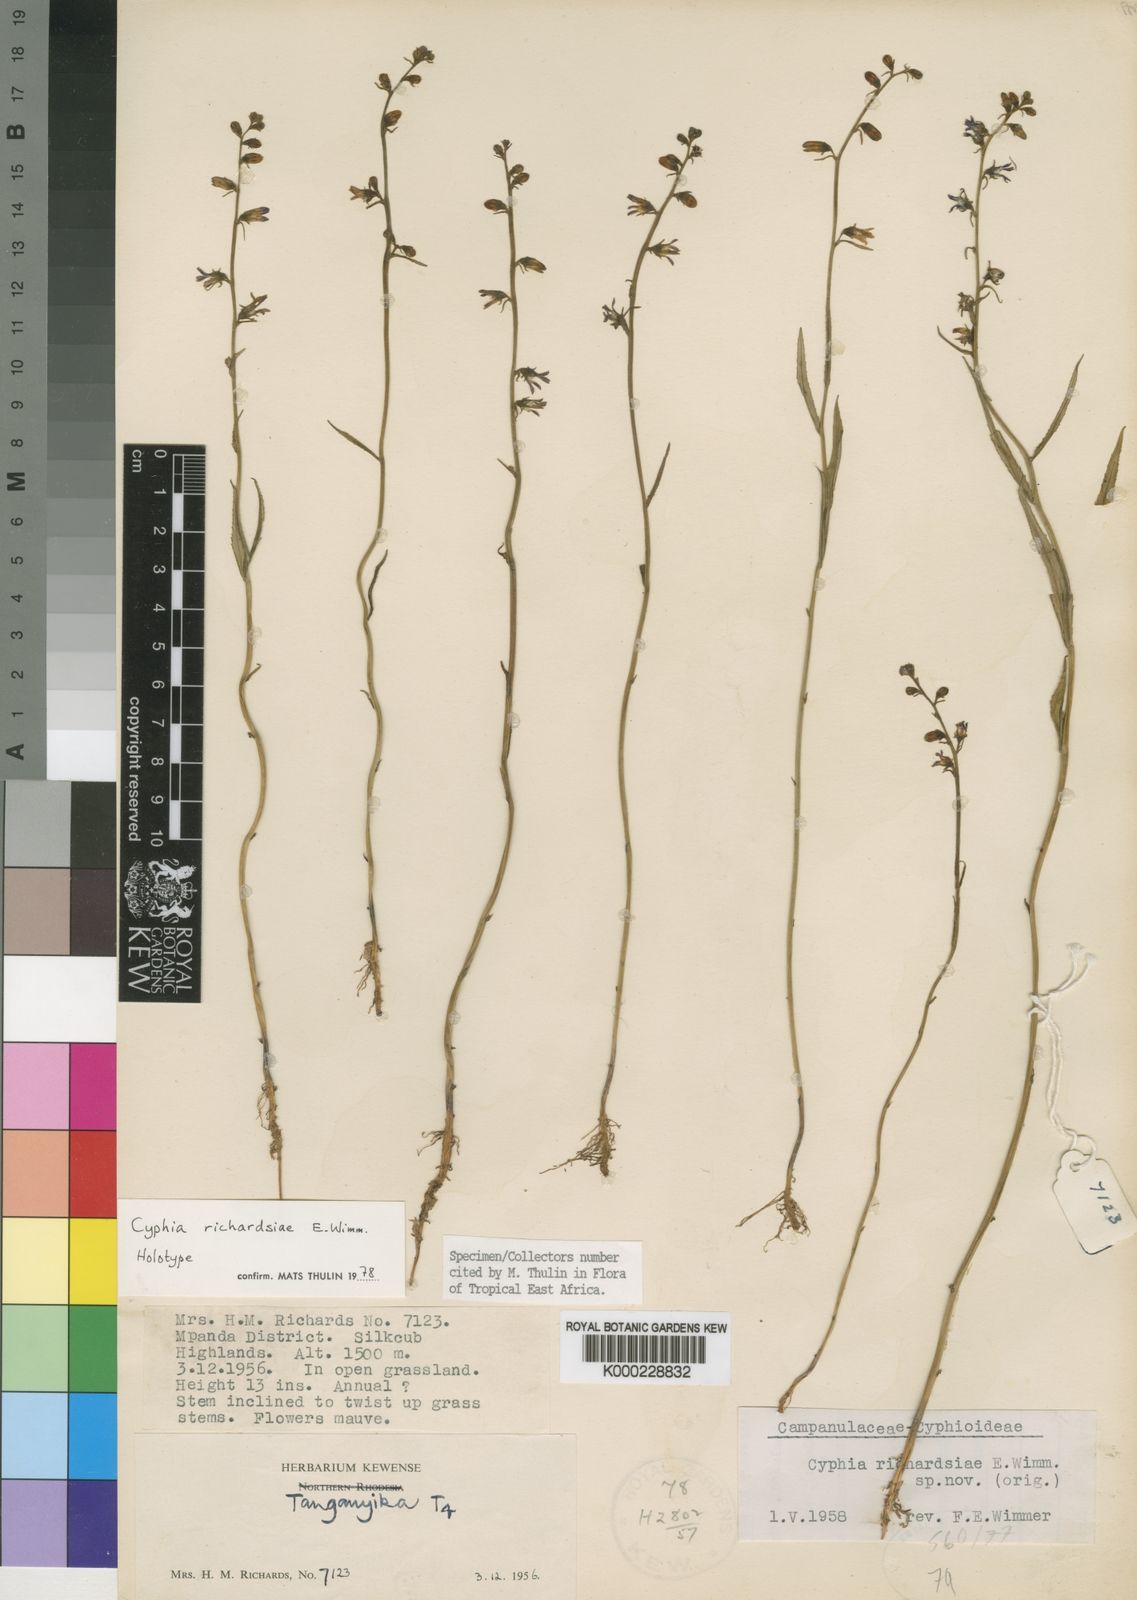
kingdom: Plantae
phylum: Tracheophyta
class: Magnoliopsida
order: Asterales
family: Campanulaceae
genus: Cyphia
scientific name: Cyphia richardsiae
